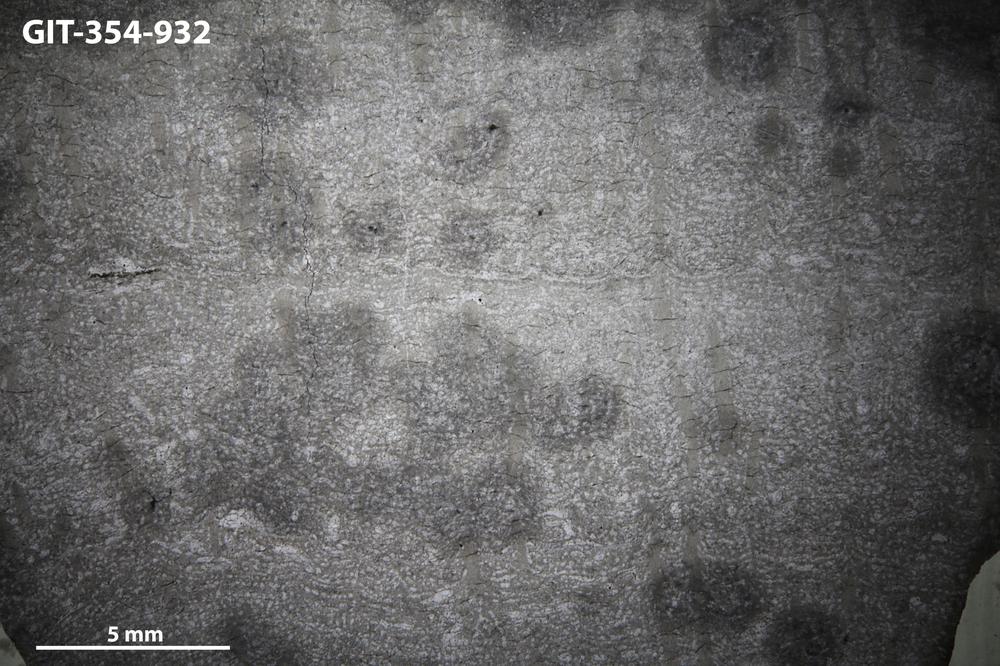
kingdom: Animalia
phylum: Porifera
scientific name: Porifera
